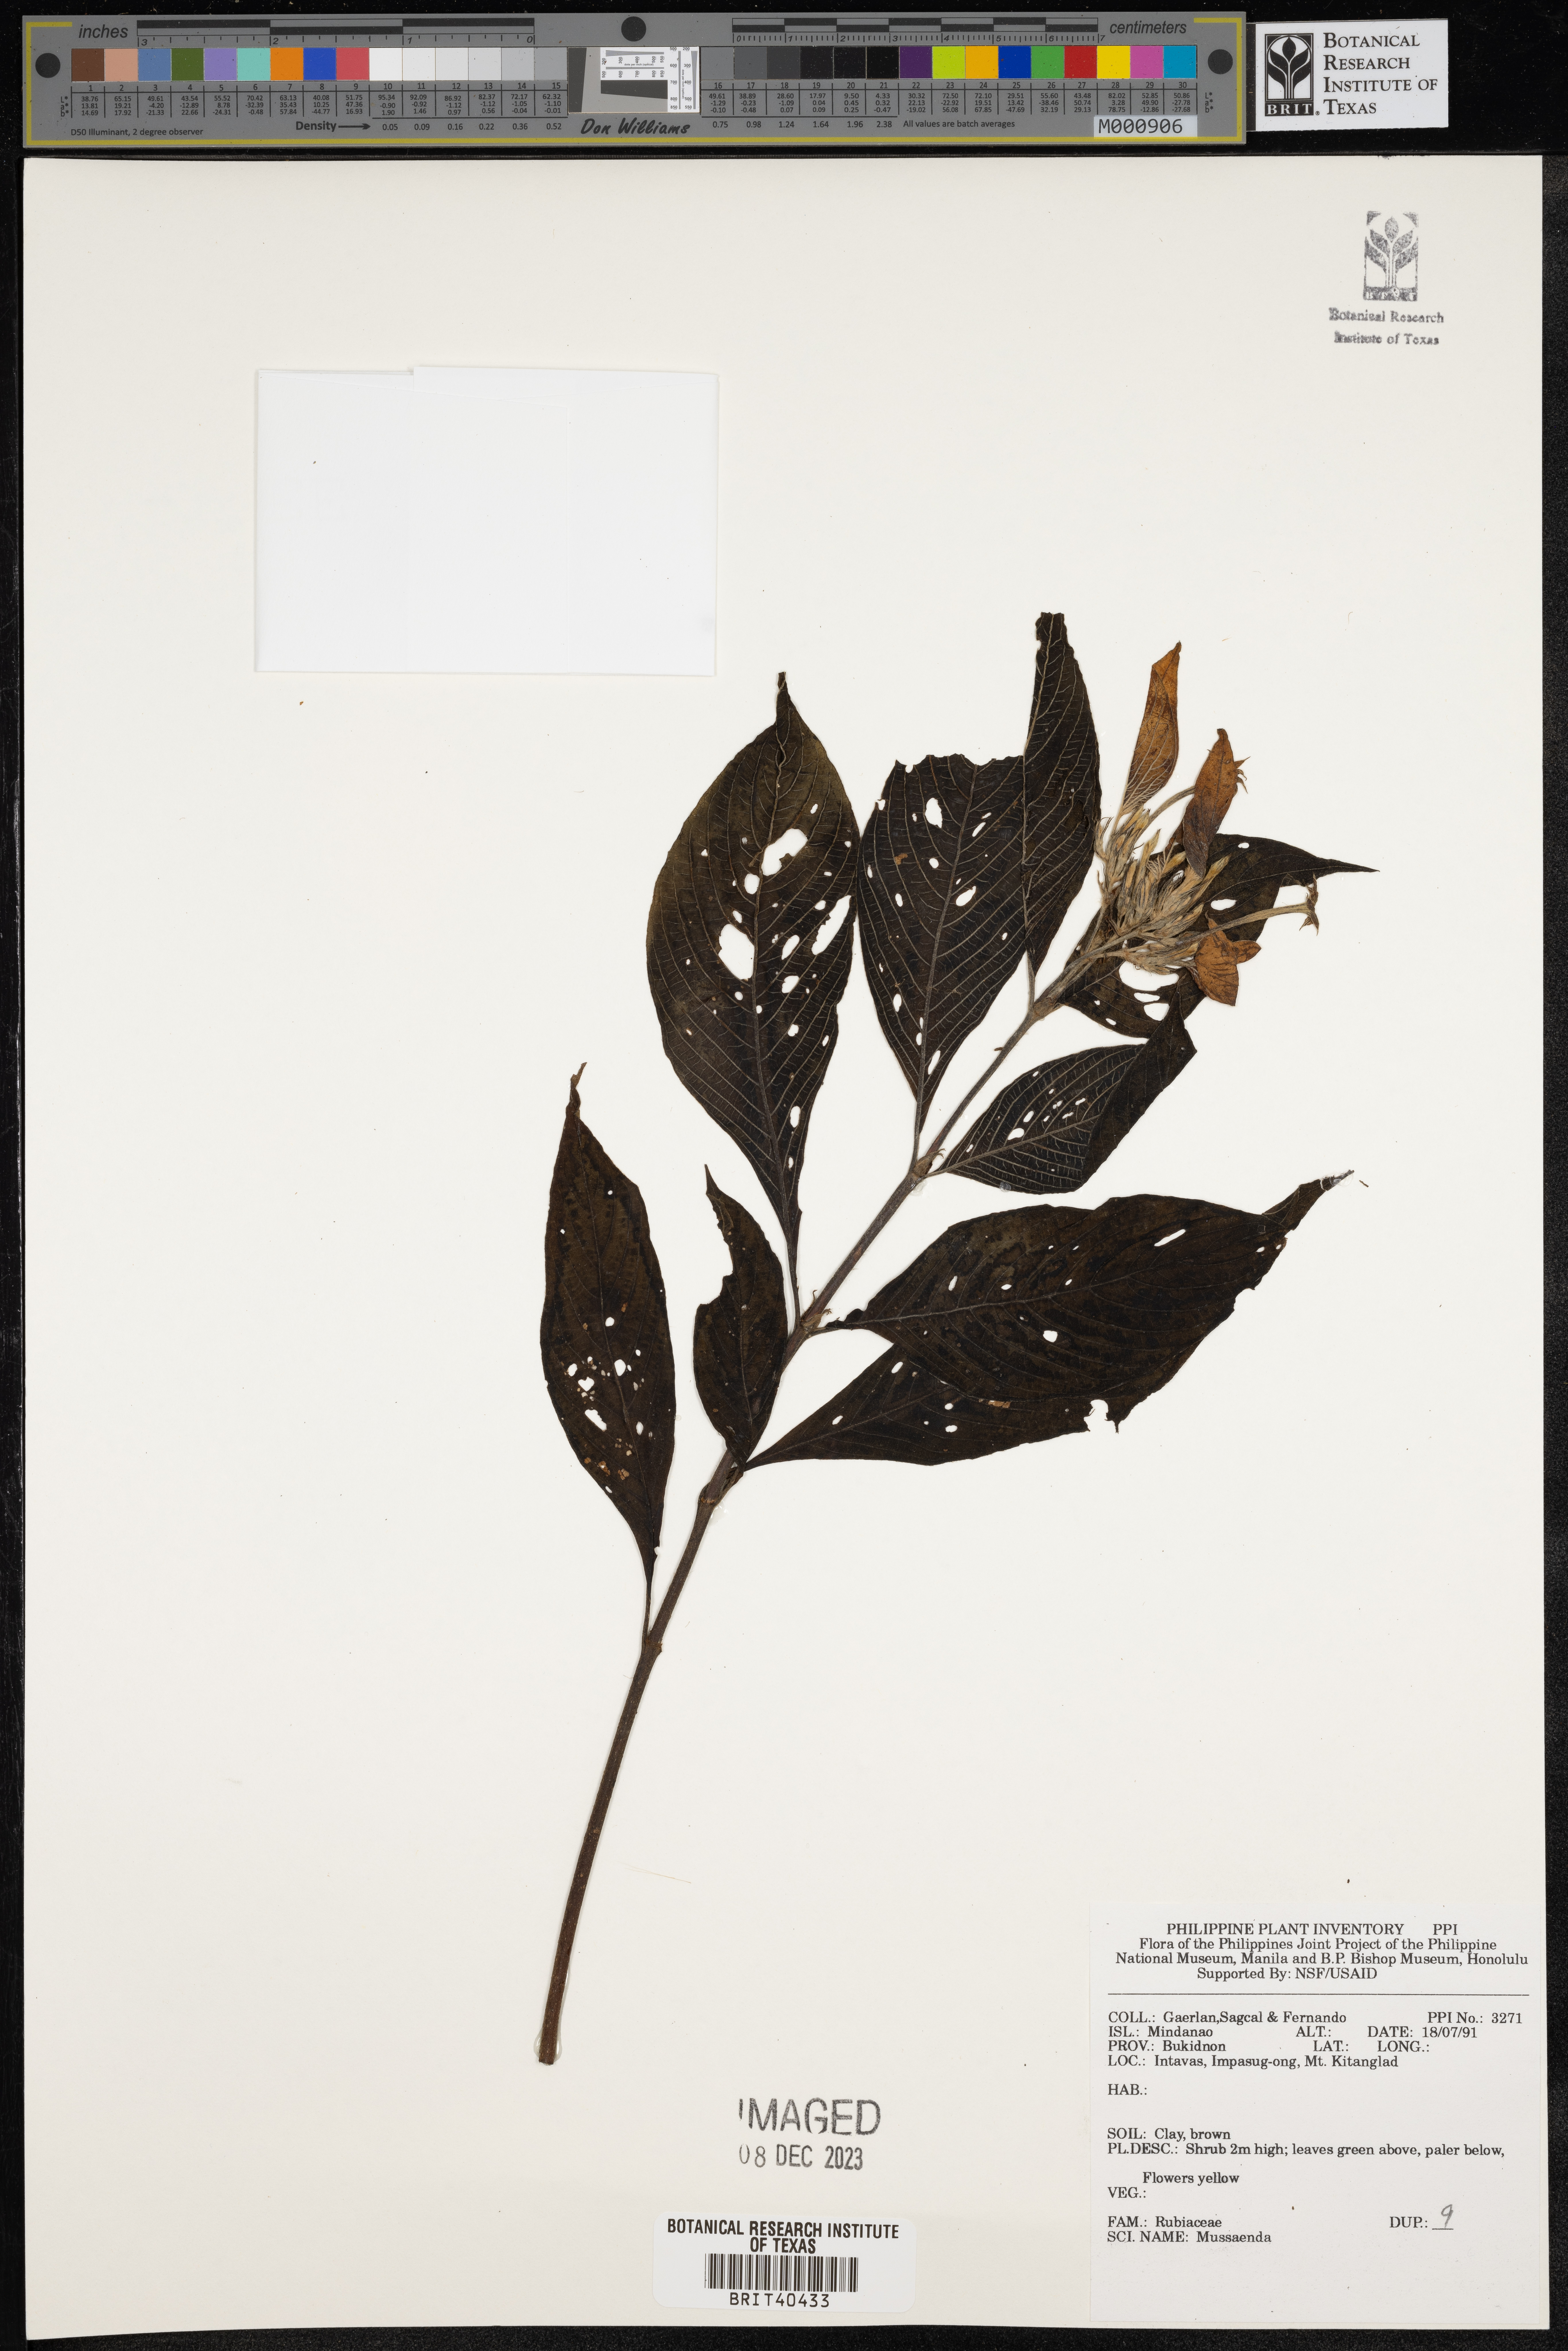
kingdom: Plantae
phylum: Tracheophyta
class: Magnoliopsida
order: Gentianales
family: Rubiaceae
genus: Mussaenda
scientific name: Mussaenda
